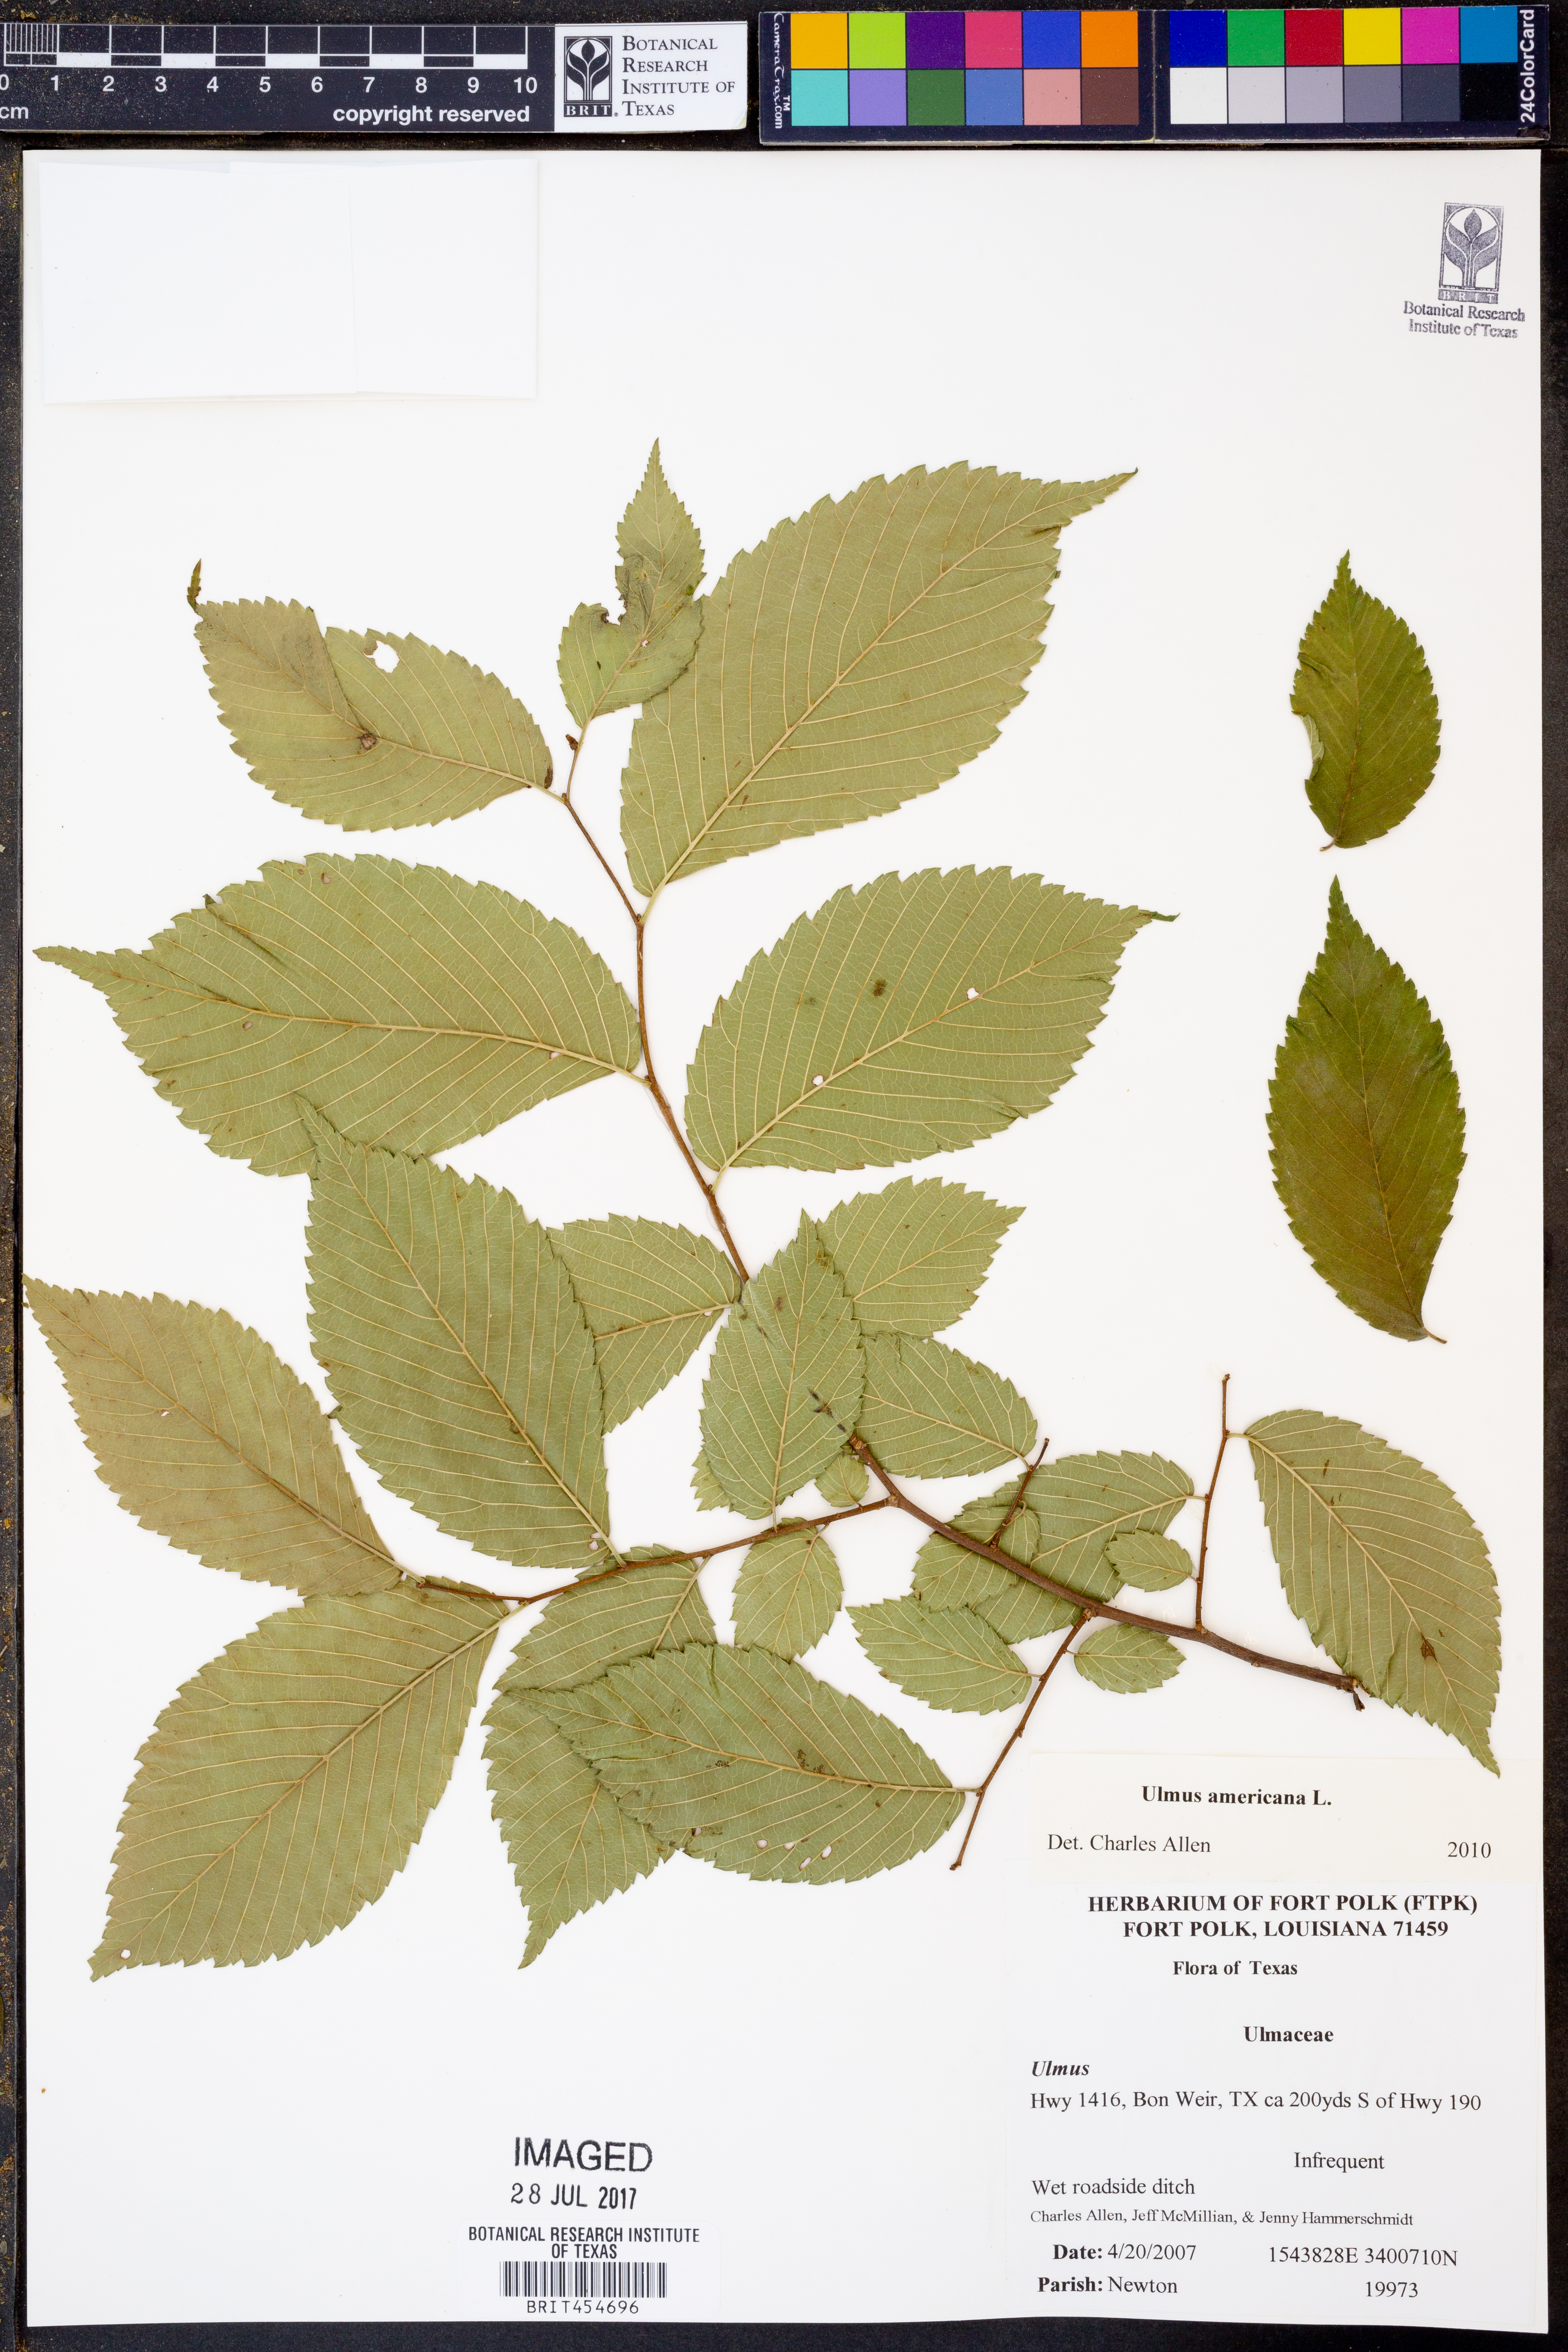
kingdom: Plantae
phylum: Tracheophyta
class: Magnoliopsida
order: Rosales
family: Ulmaceae
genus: Ulmus
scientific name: Ulmus americana
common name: American elm
